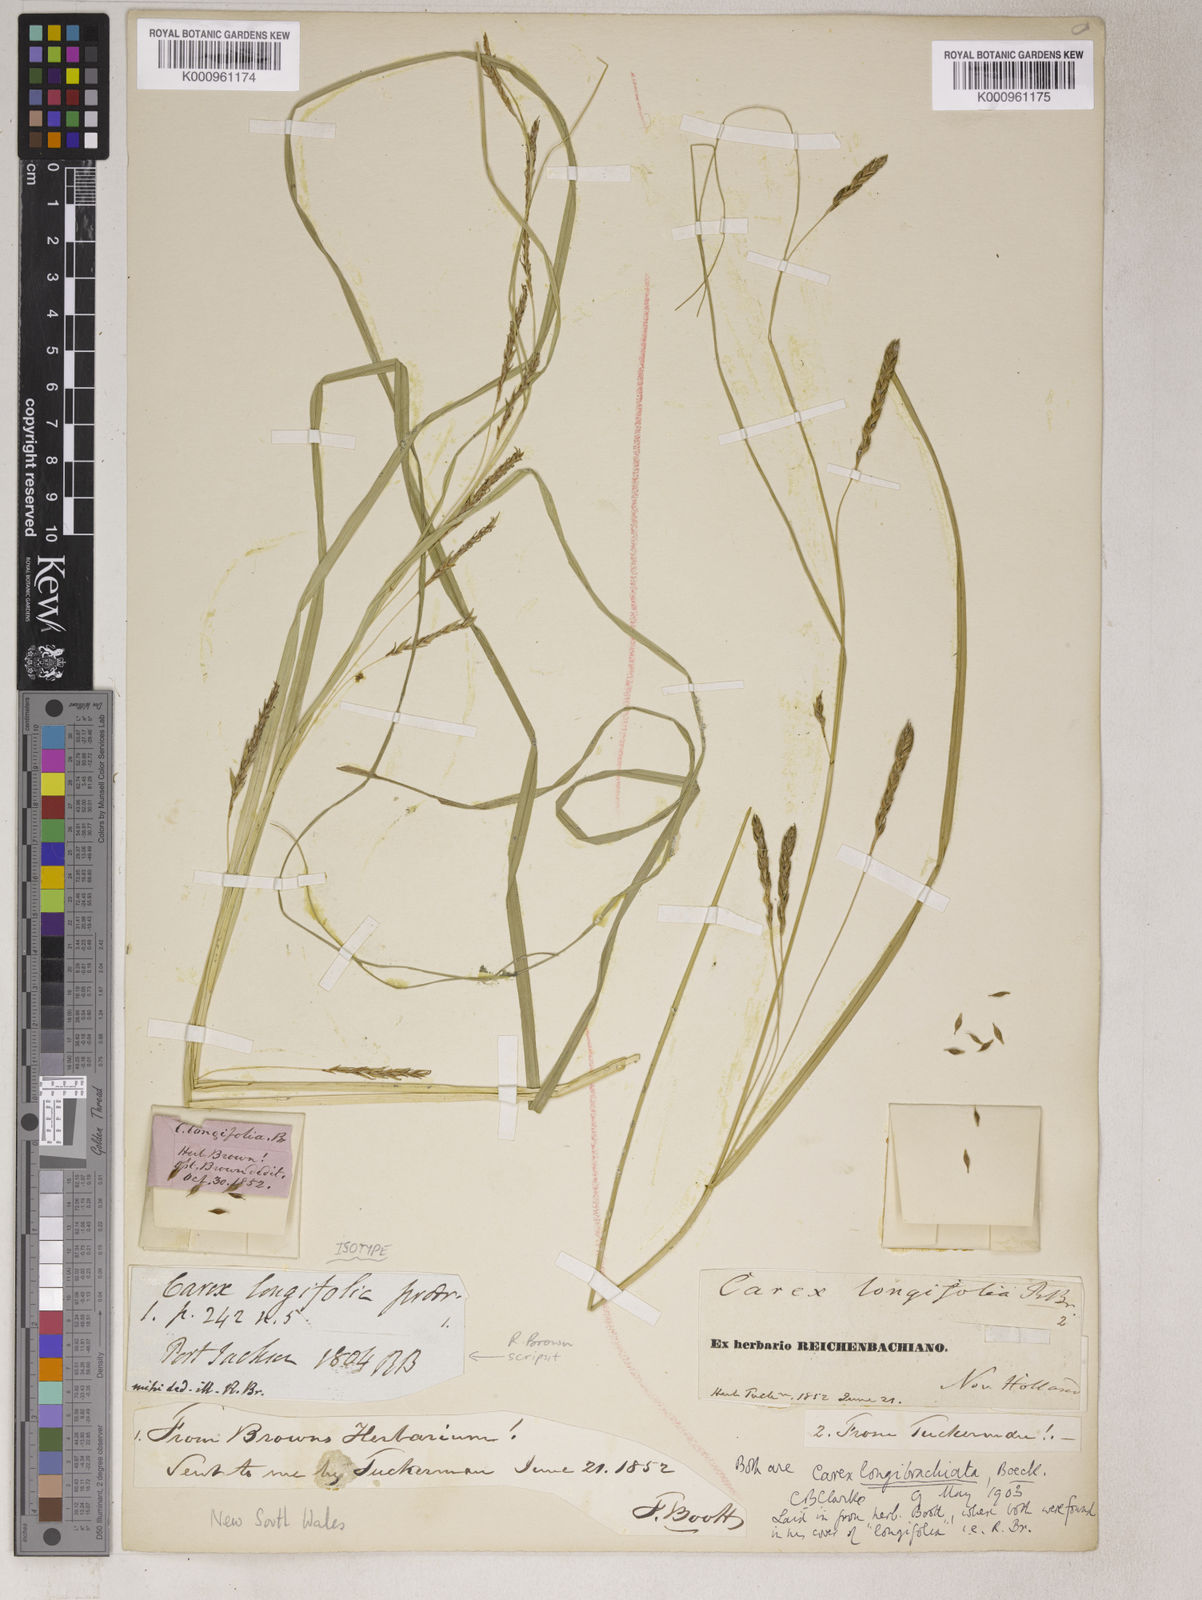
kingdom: Plantae
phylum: Tracheophyta
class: Liliopsida
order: Poales
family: Cyperaceae
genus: Carex
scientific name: Carex
